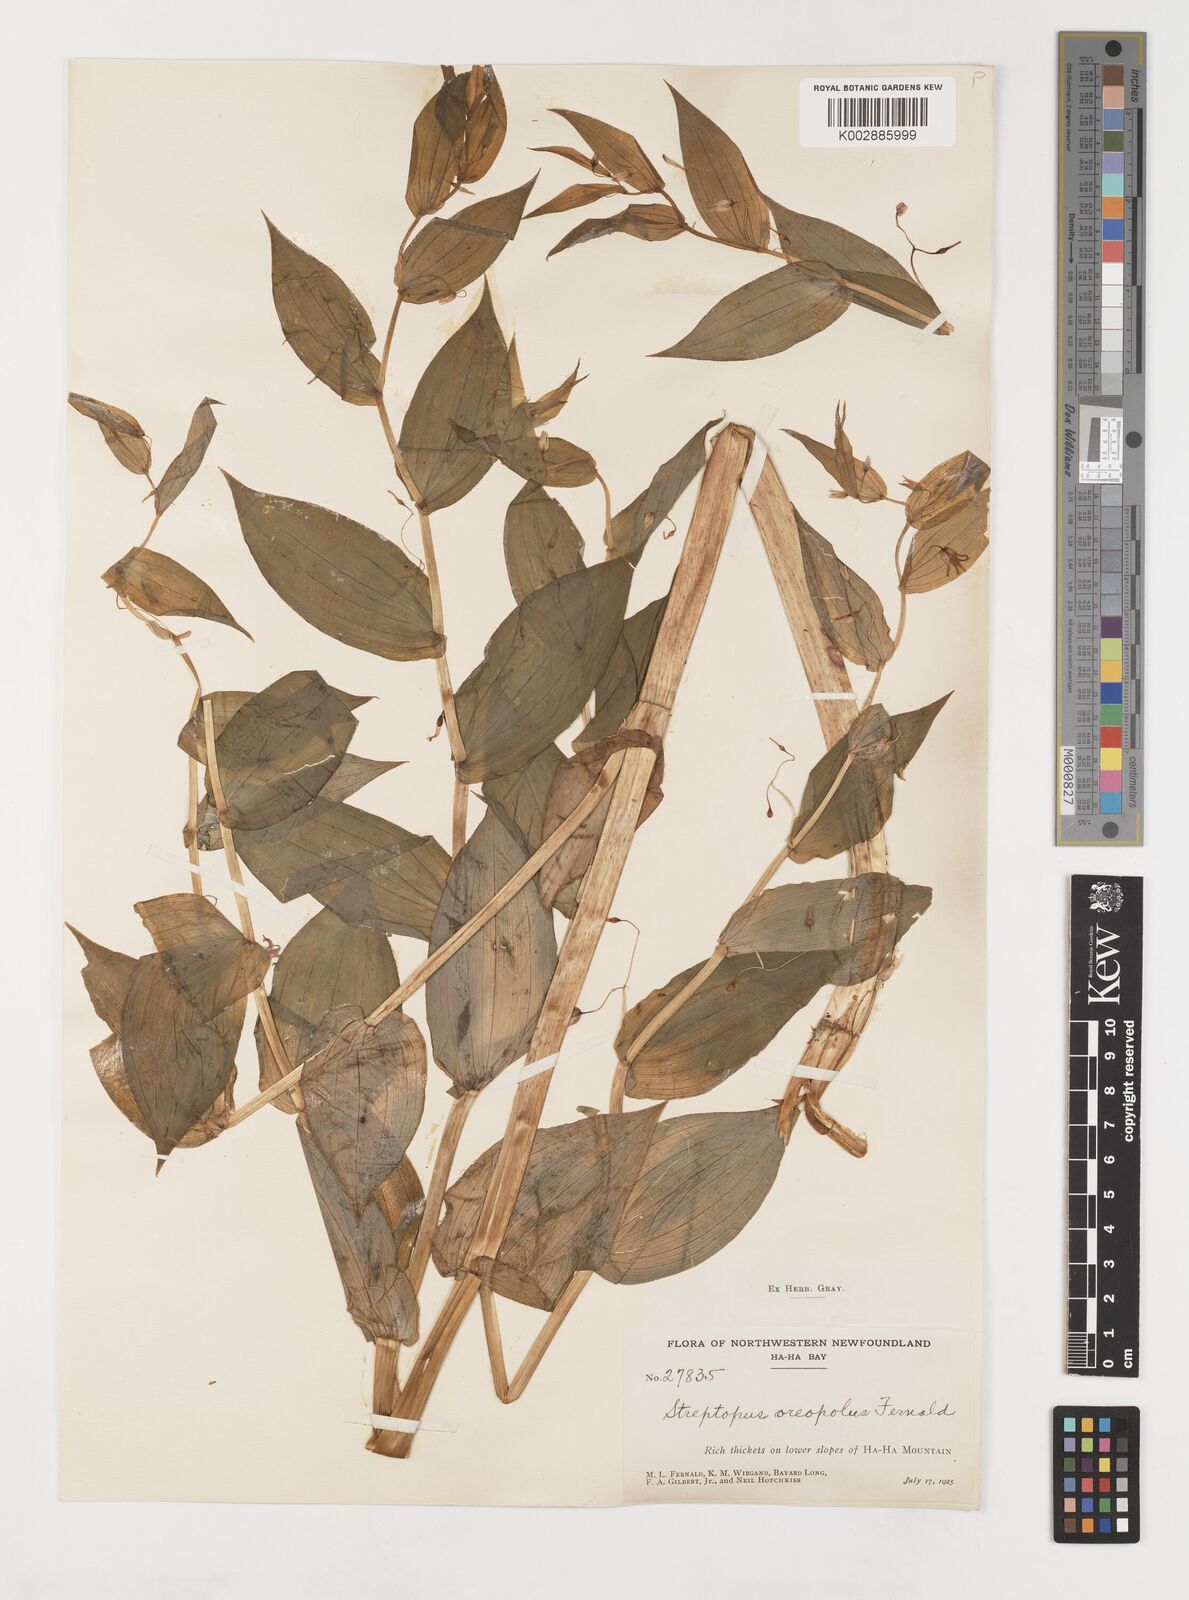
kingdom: Plantae
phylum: Tracheophyta
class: Liliopsida
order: Liliales
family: Liliaceae
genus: Streptopus
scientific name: Streptopus oreopolus
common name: Hybrid twisted-stalk
